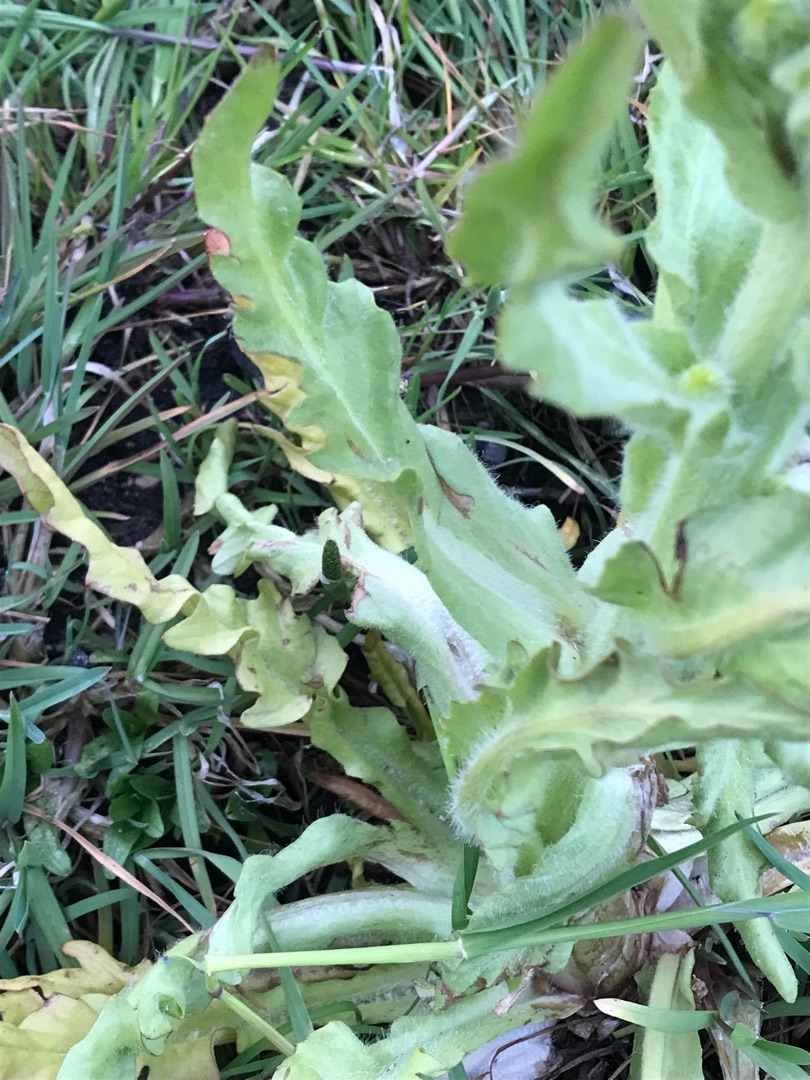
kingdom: Plantae
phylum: Tracheophyta
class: Magnoliopsida
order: Asterales
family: Asteraceae
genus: Tephroseris
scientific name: Tephroseris palustris
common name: Kær-fnokurt
